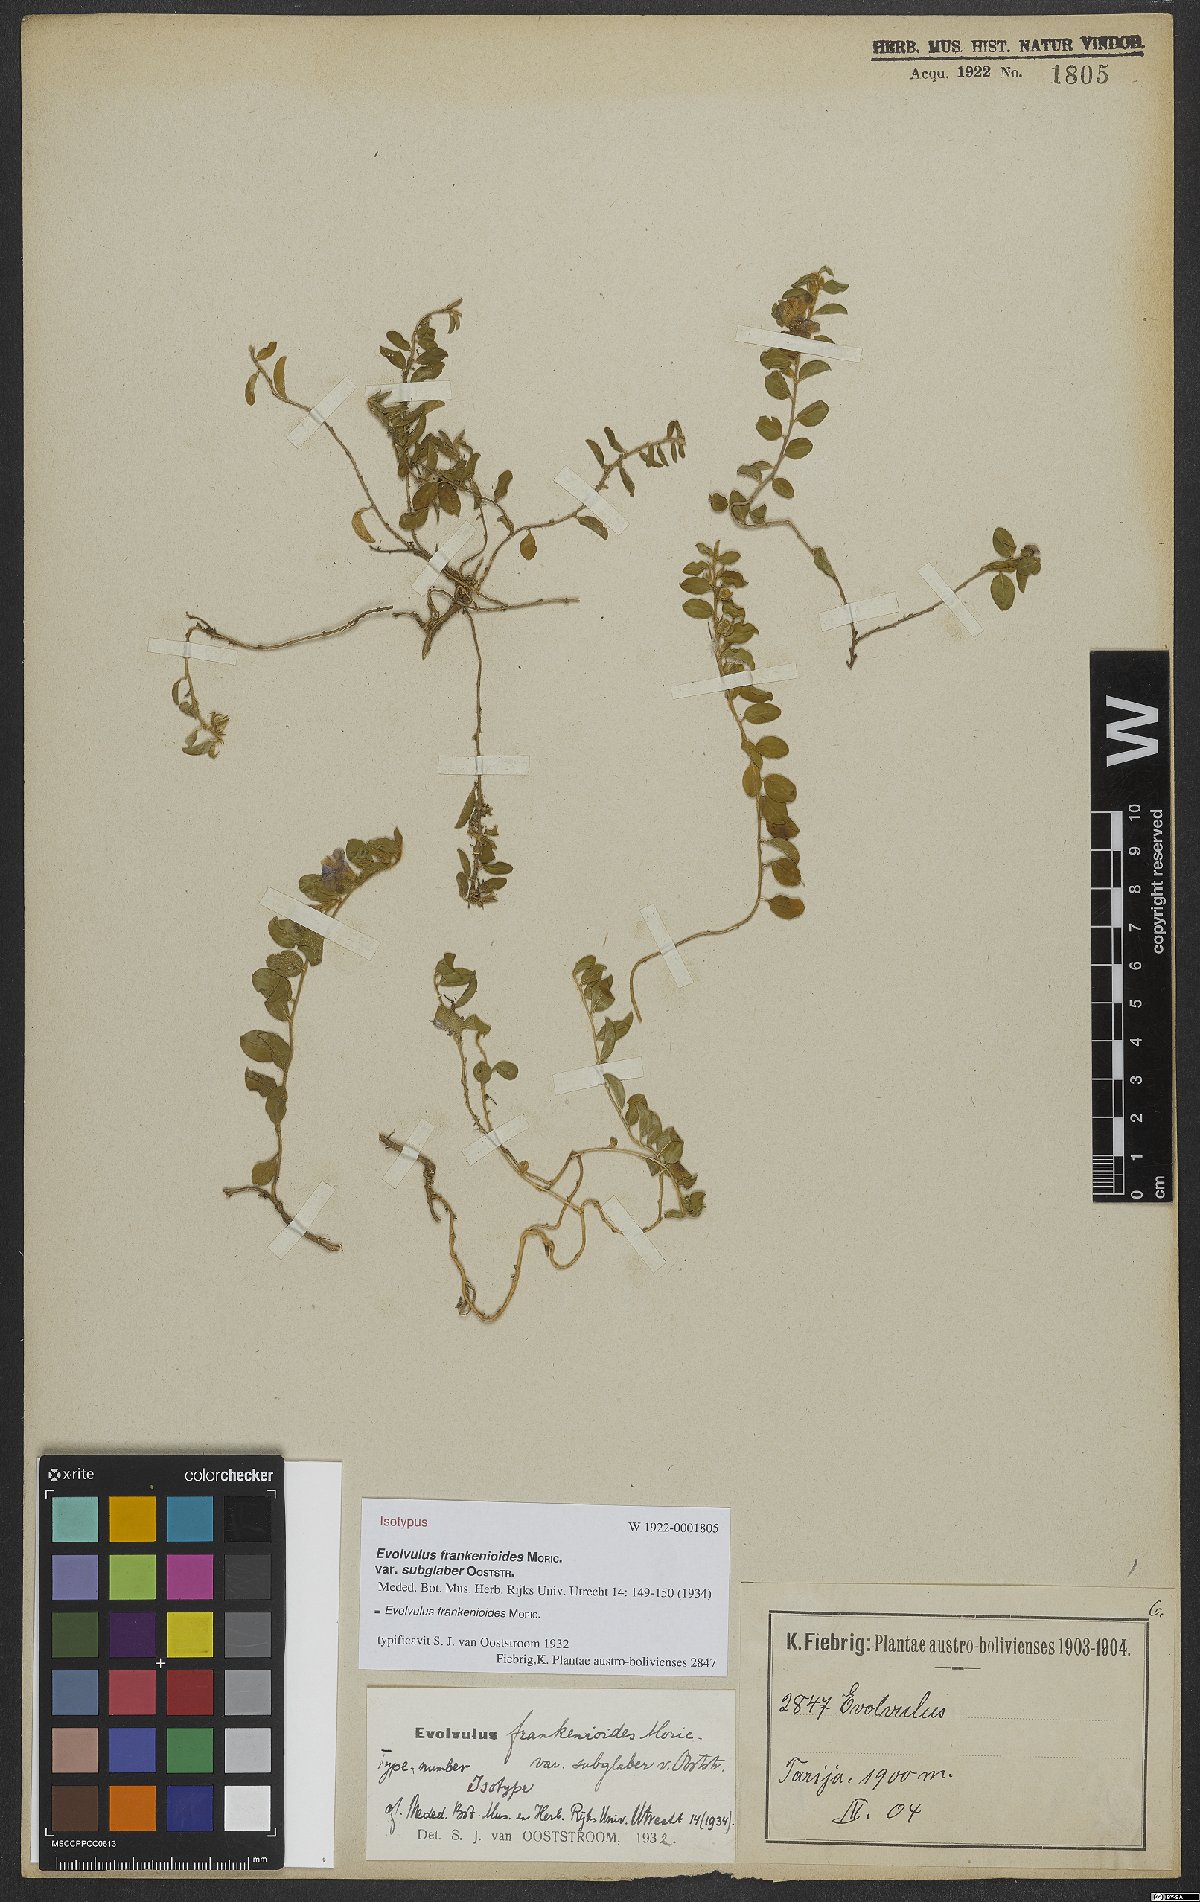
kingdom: Plantae
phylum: Tracheophyta
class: Magnoliopsida
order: Solanales
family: Convolvulaceae
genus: Evolvulus
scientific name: Evolvulus frankenioides
